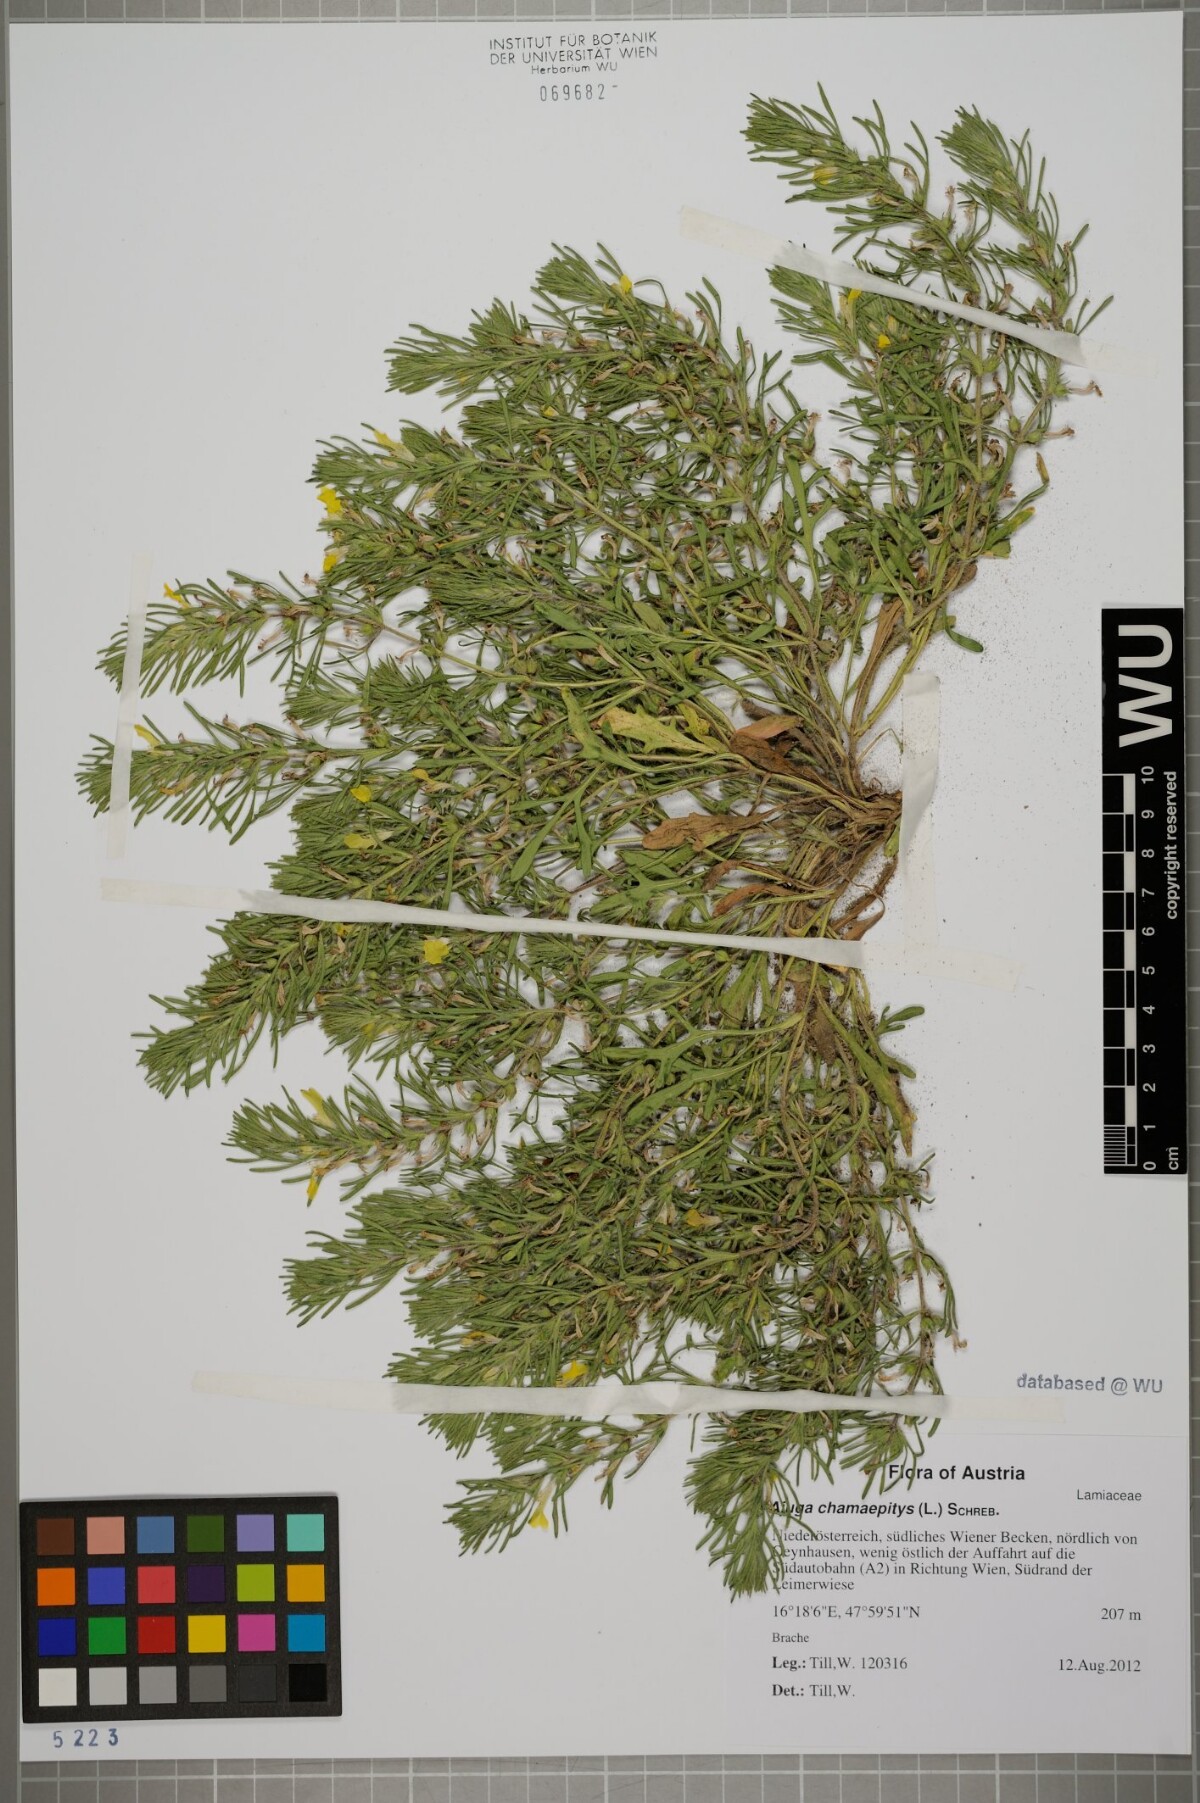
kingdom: Plantae
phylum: Tracheophyta
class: Magnoliopsida
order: Lamiales
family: Lamiaceae
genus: Ajuga
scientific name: Ajuga chamaepitys
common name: Ground-pine
